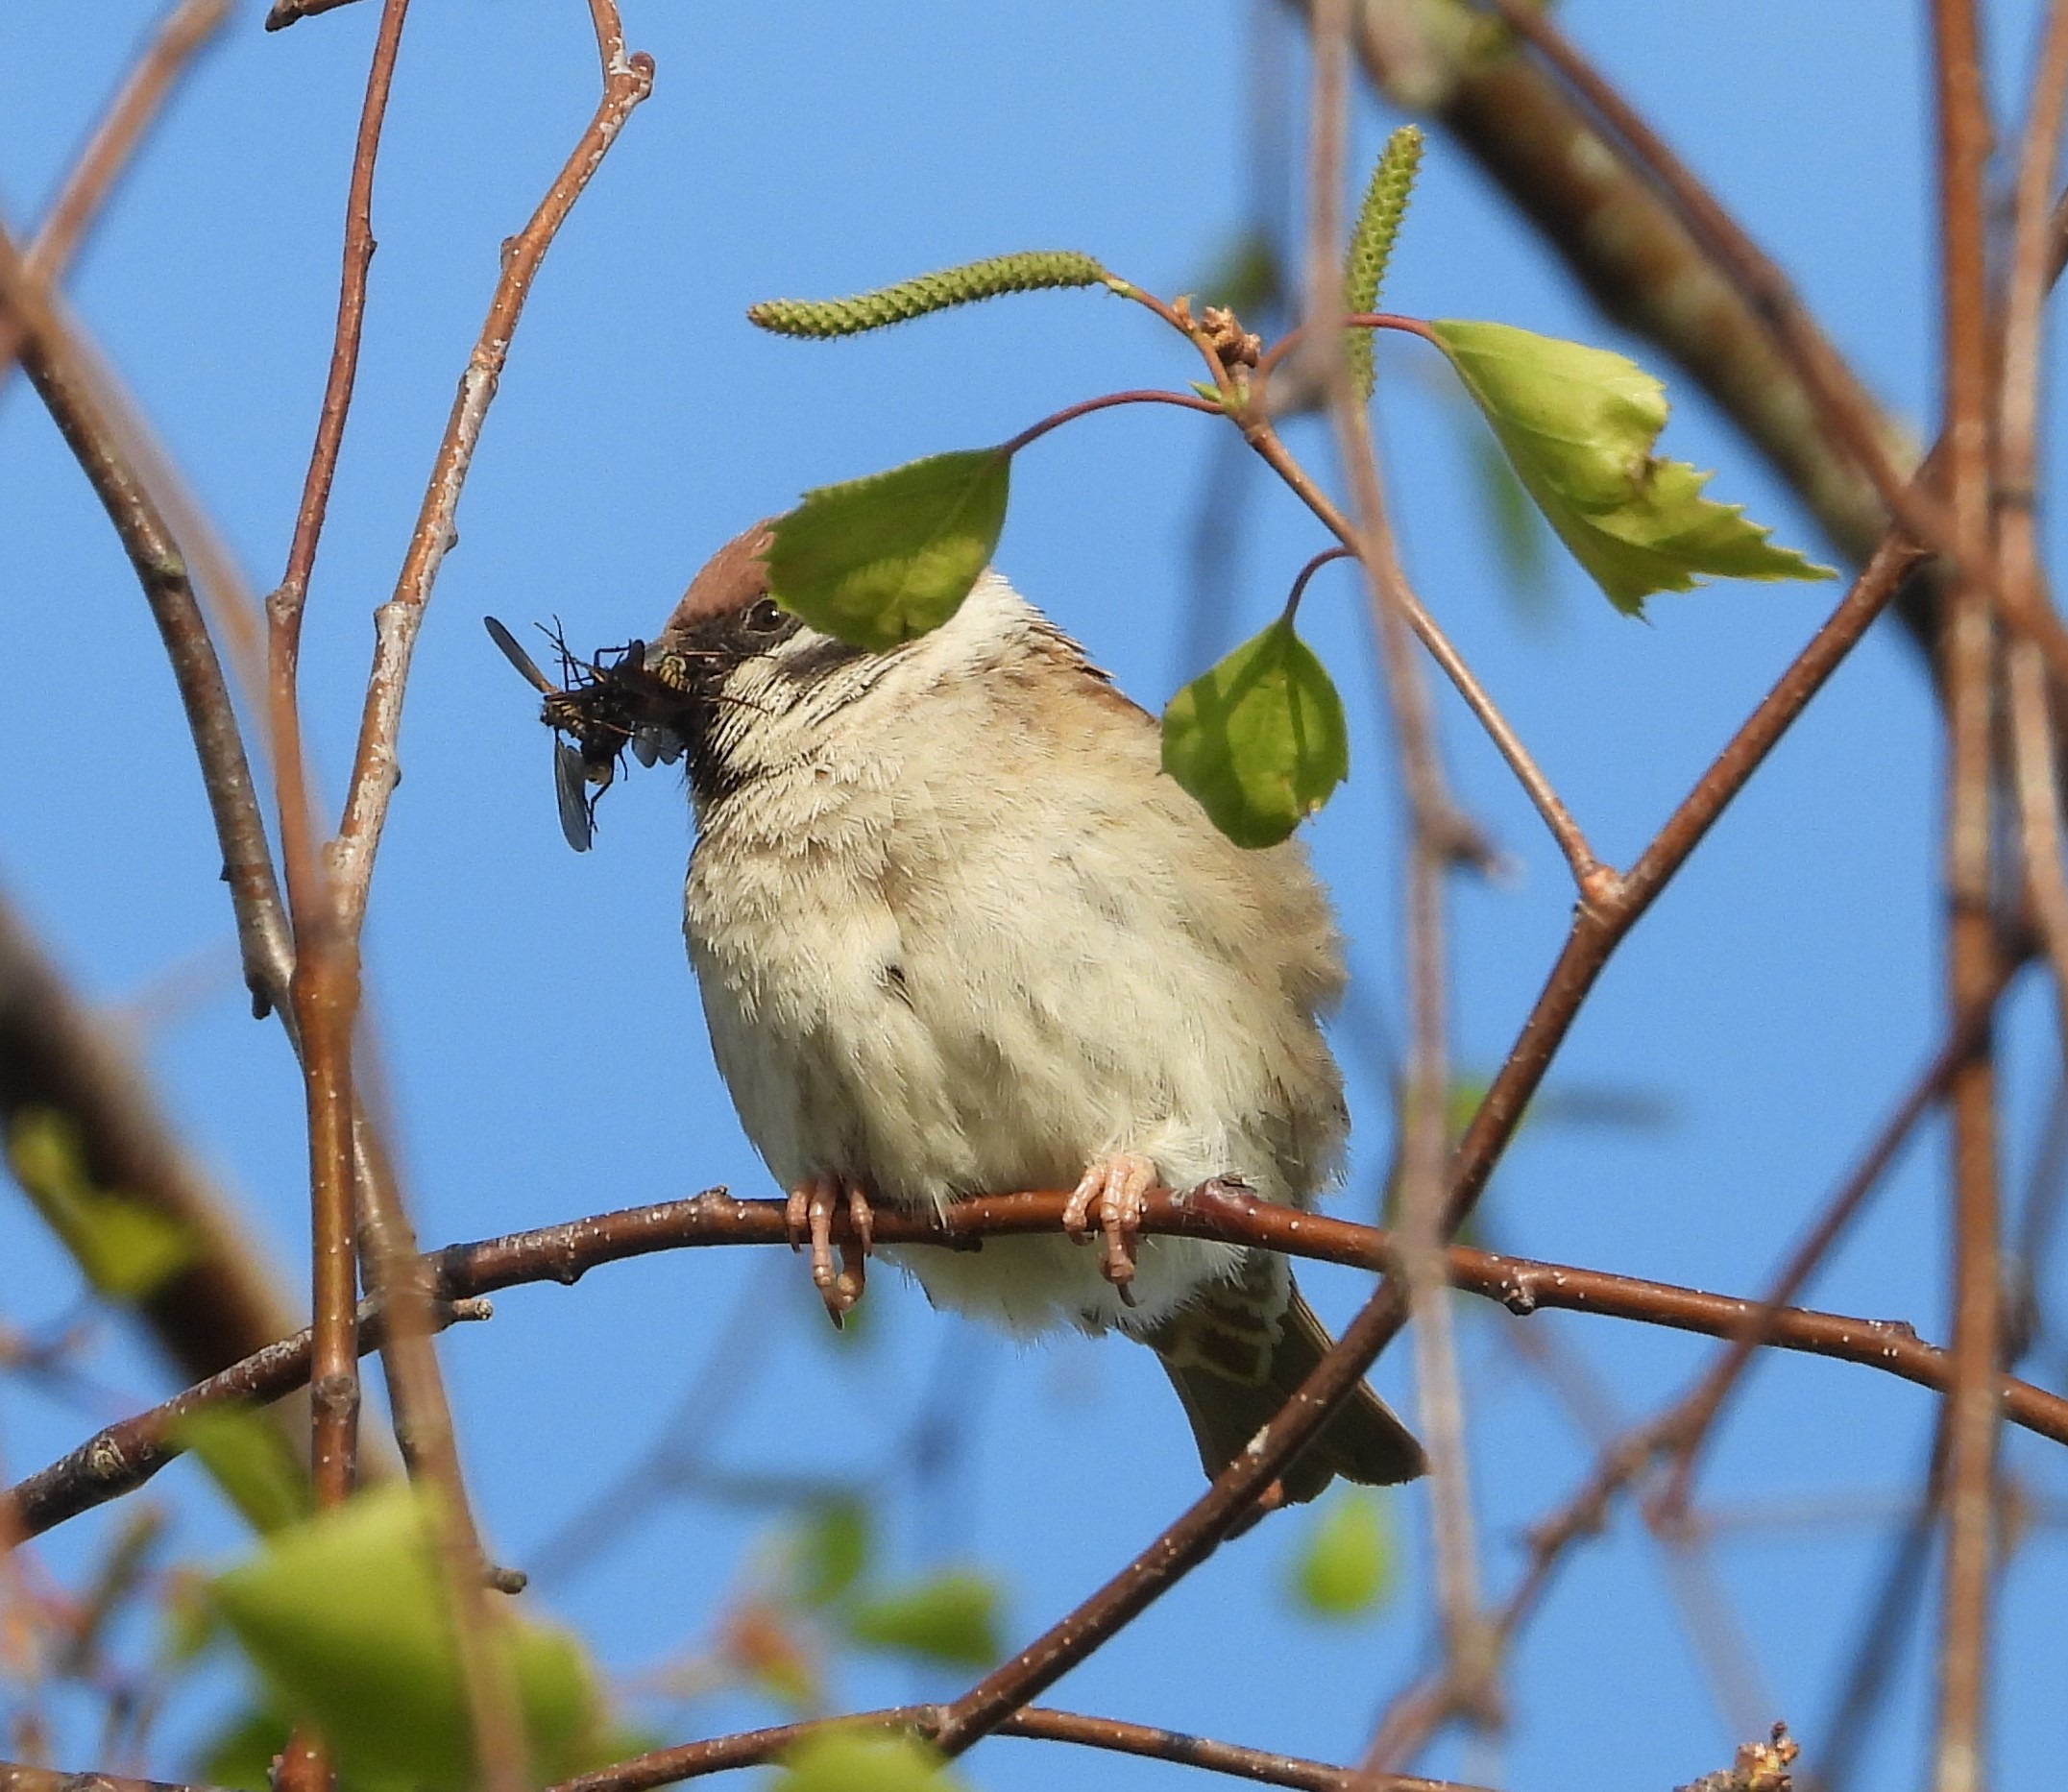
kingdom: Animalia
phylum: Chordata
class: Aves
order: Passeriformes
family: Passeridae
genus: Passer
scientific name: Passer montanus
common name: Skovspurv
